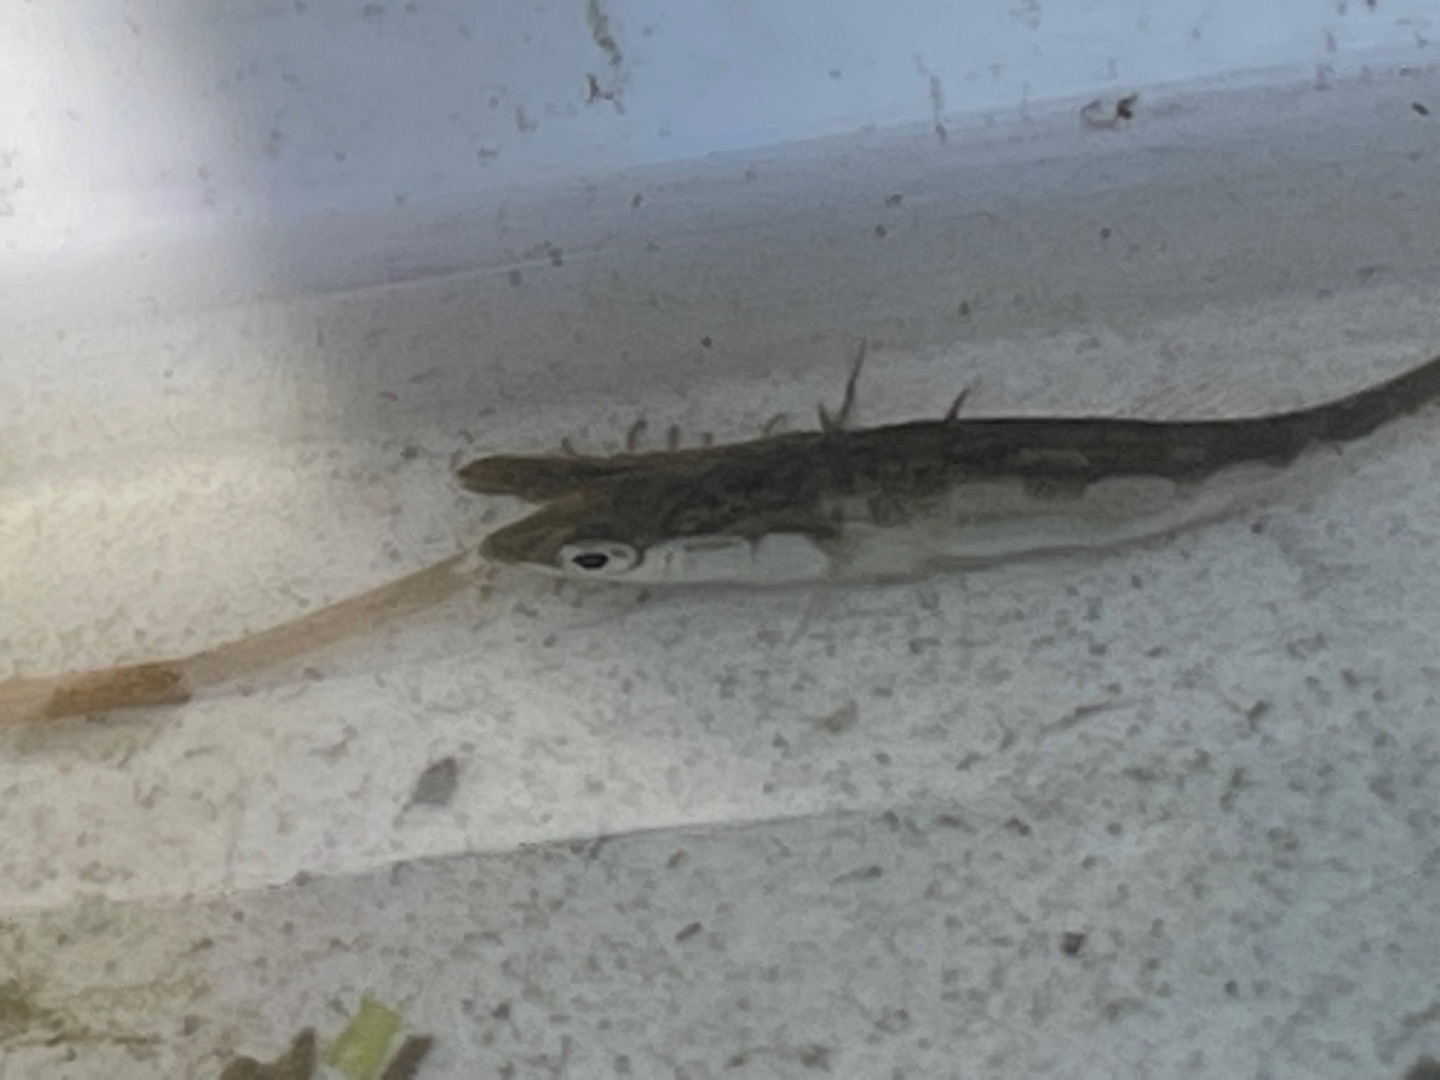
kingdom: Animalia
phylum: Chordata
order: Gasterosteiformes
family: Gasterosteidae
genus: Gasterosteus
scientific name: Gasterosteus aculeatus
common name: Trepigget hundestejle
